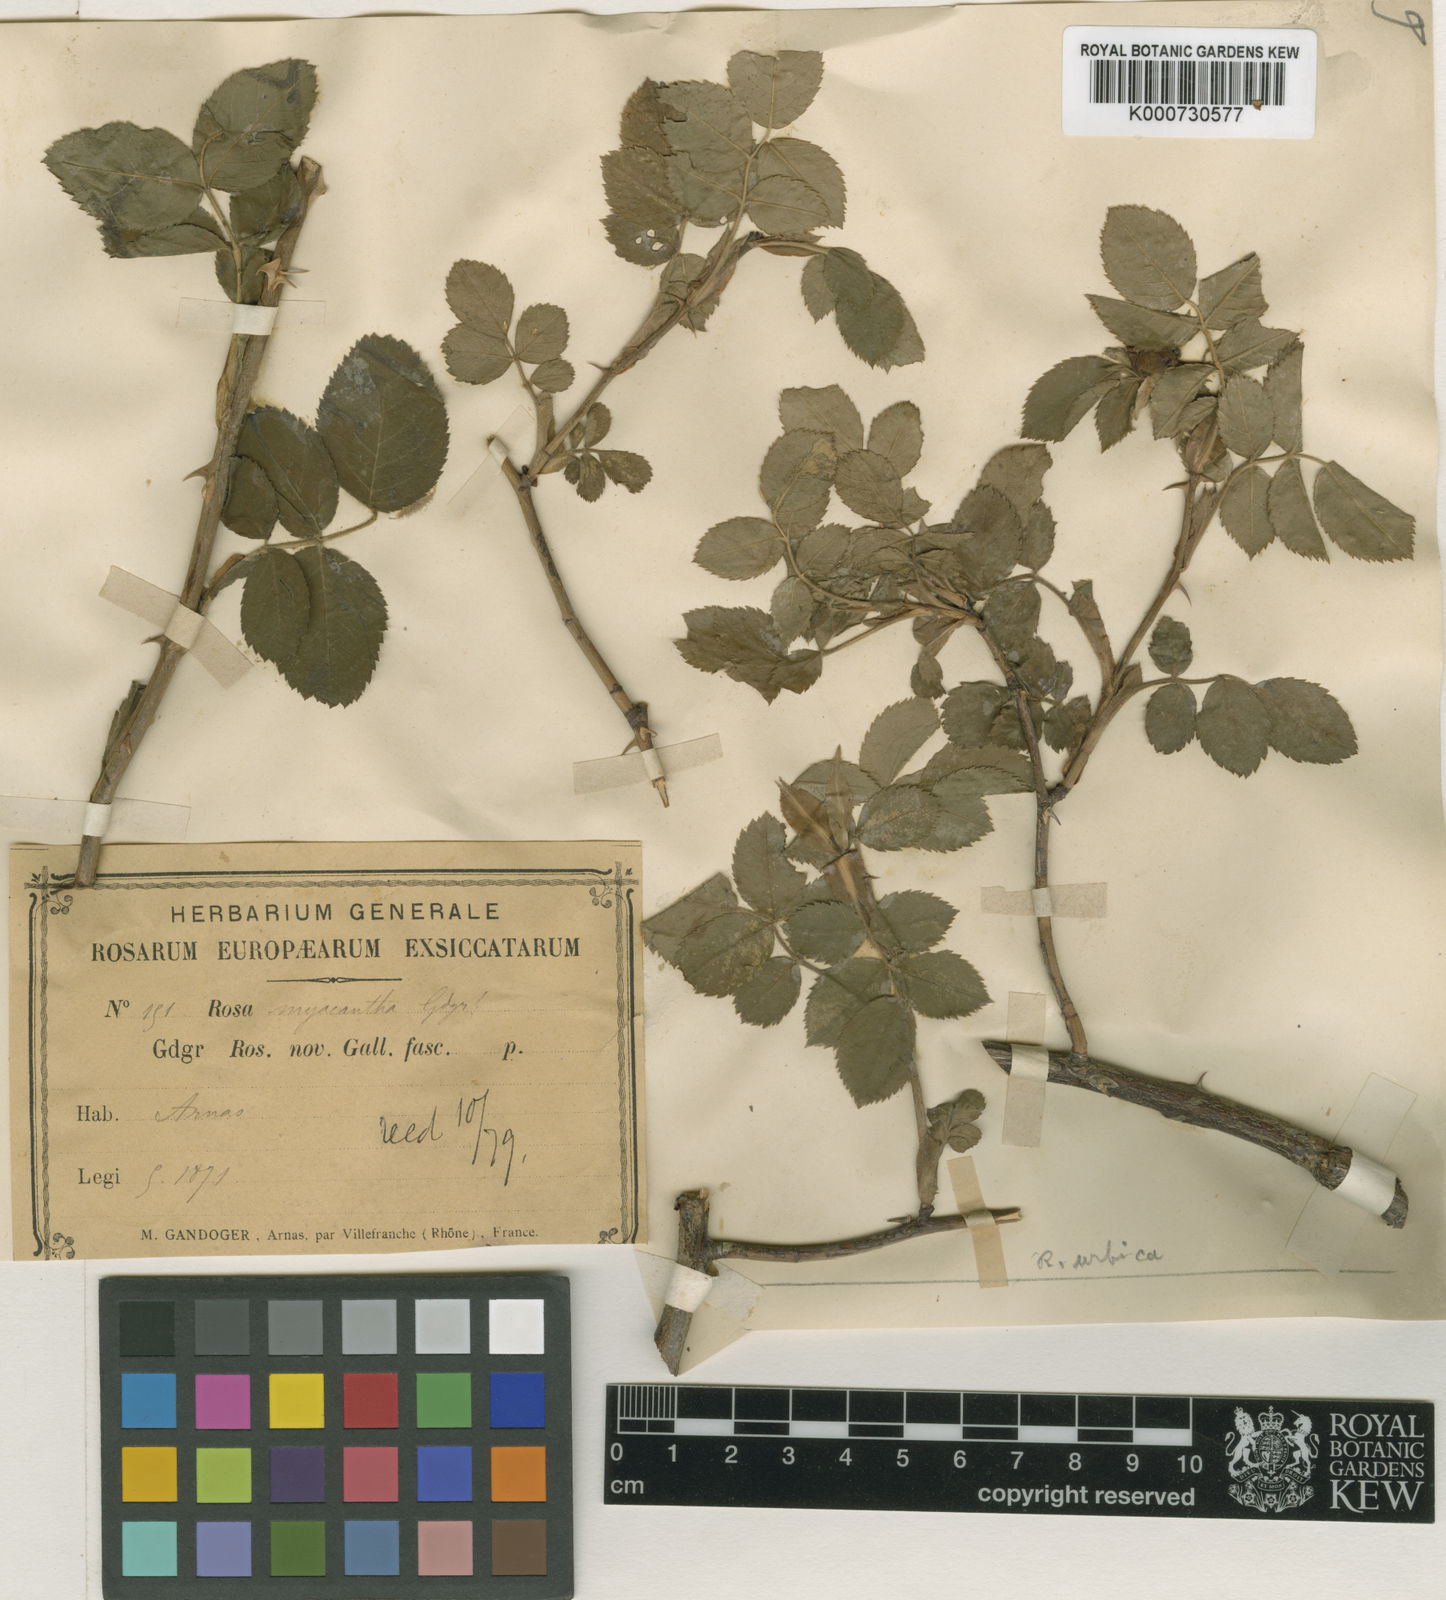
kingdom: Plantae
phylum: Tracheophyta
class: Magnoliopsida
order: Rosales
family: Rosaceae
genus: Rosa
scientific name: Rosa
